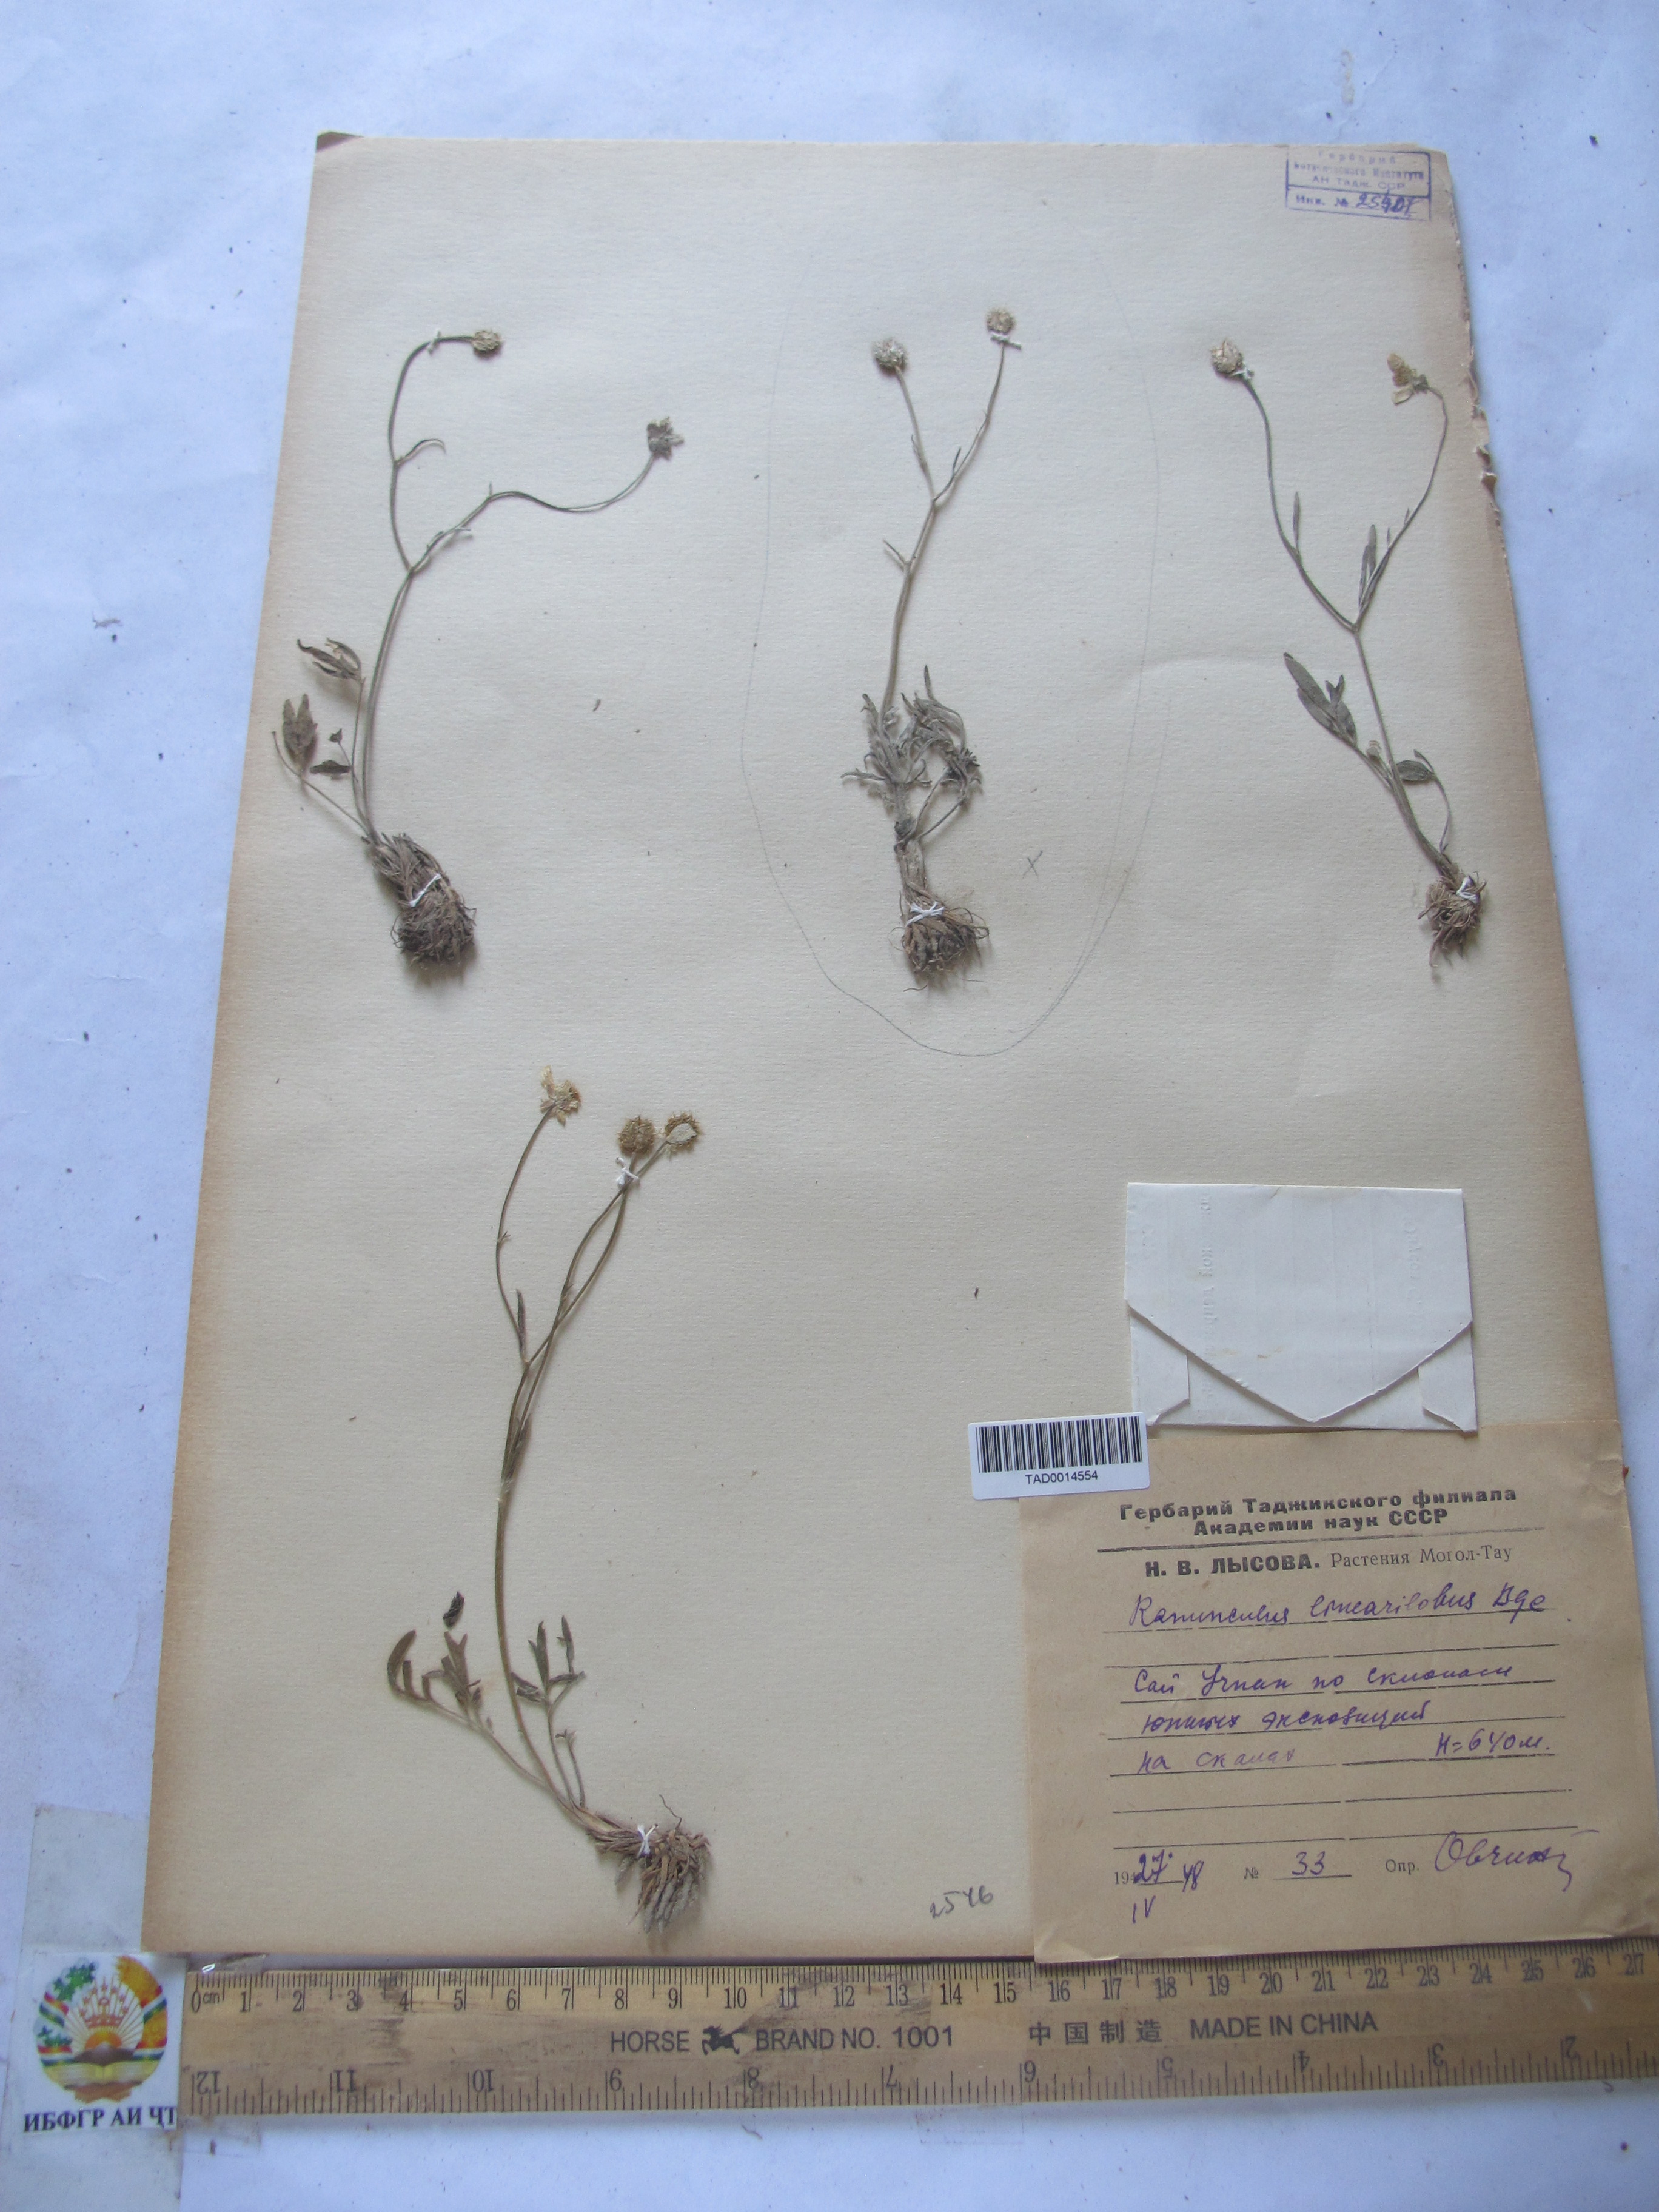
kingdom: Plantae
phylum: Tracheophyta
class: Magnoliopsida
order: Ranunculales
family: Ranunculaceae
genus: Ranunculus
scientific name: Ranunculus linearilobus
